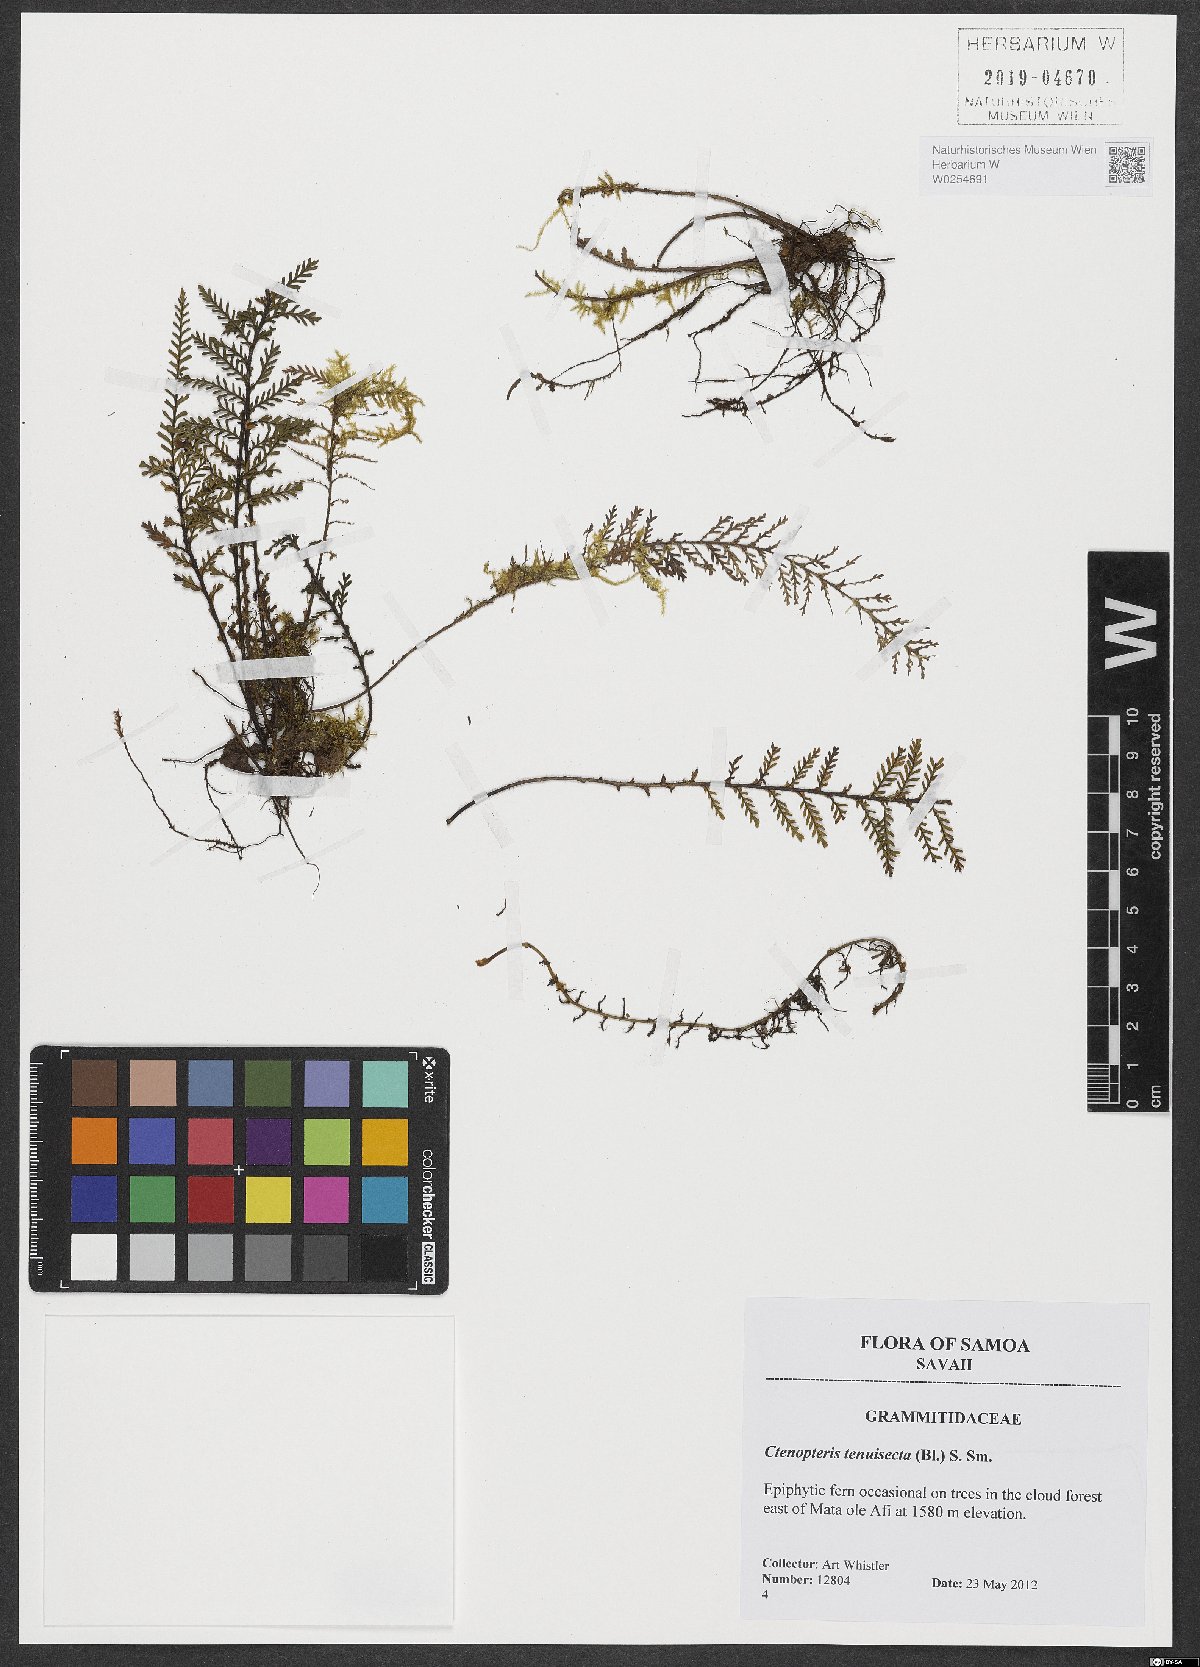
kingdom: Plantae
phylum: Tracheophyta
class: Polypodiopsida
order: Polypodiales
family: Polypodiaceae
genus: Oreogrammitis
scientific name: Oreogrammitis tenuisecta
